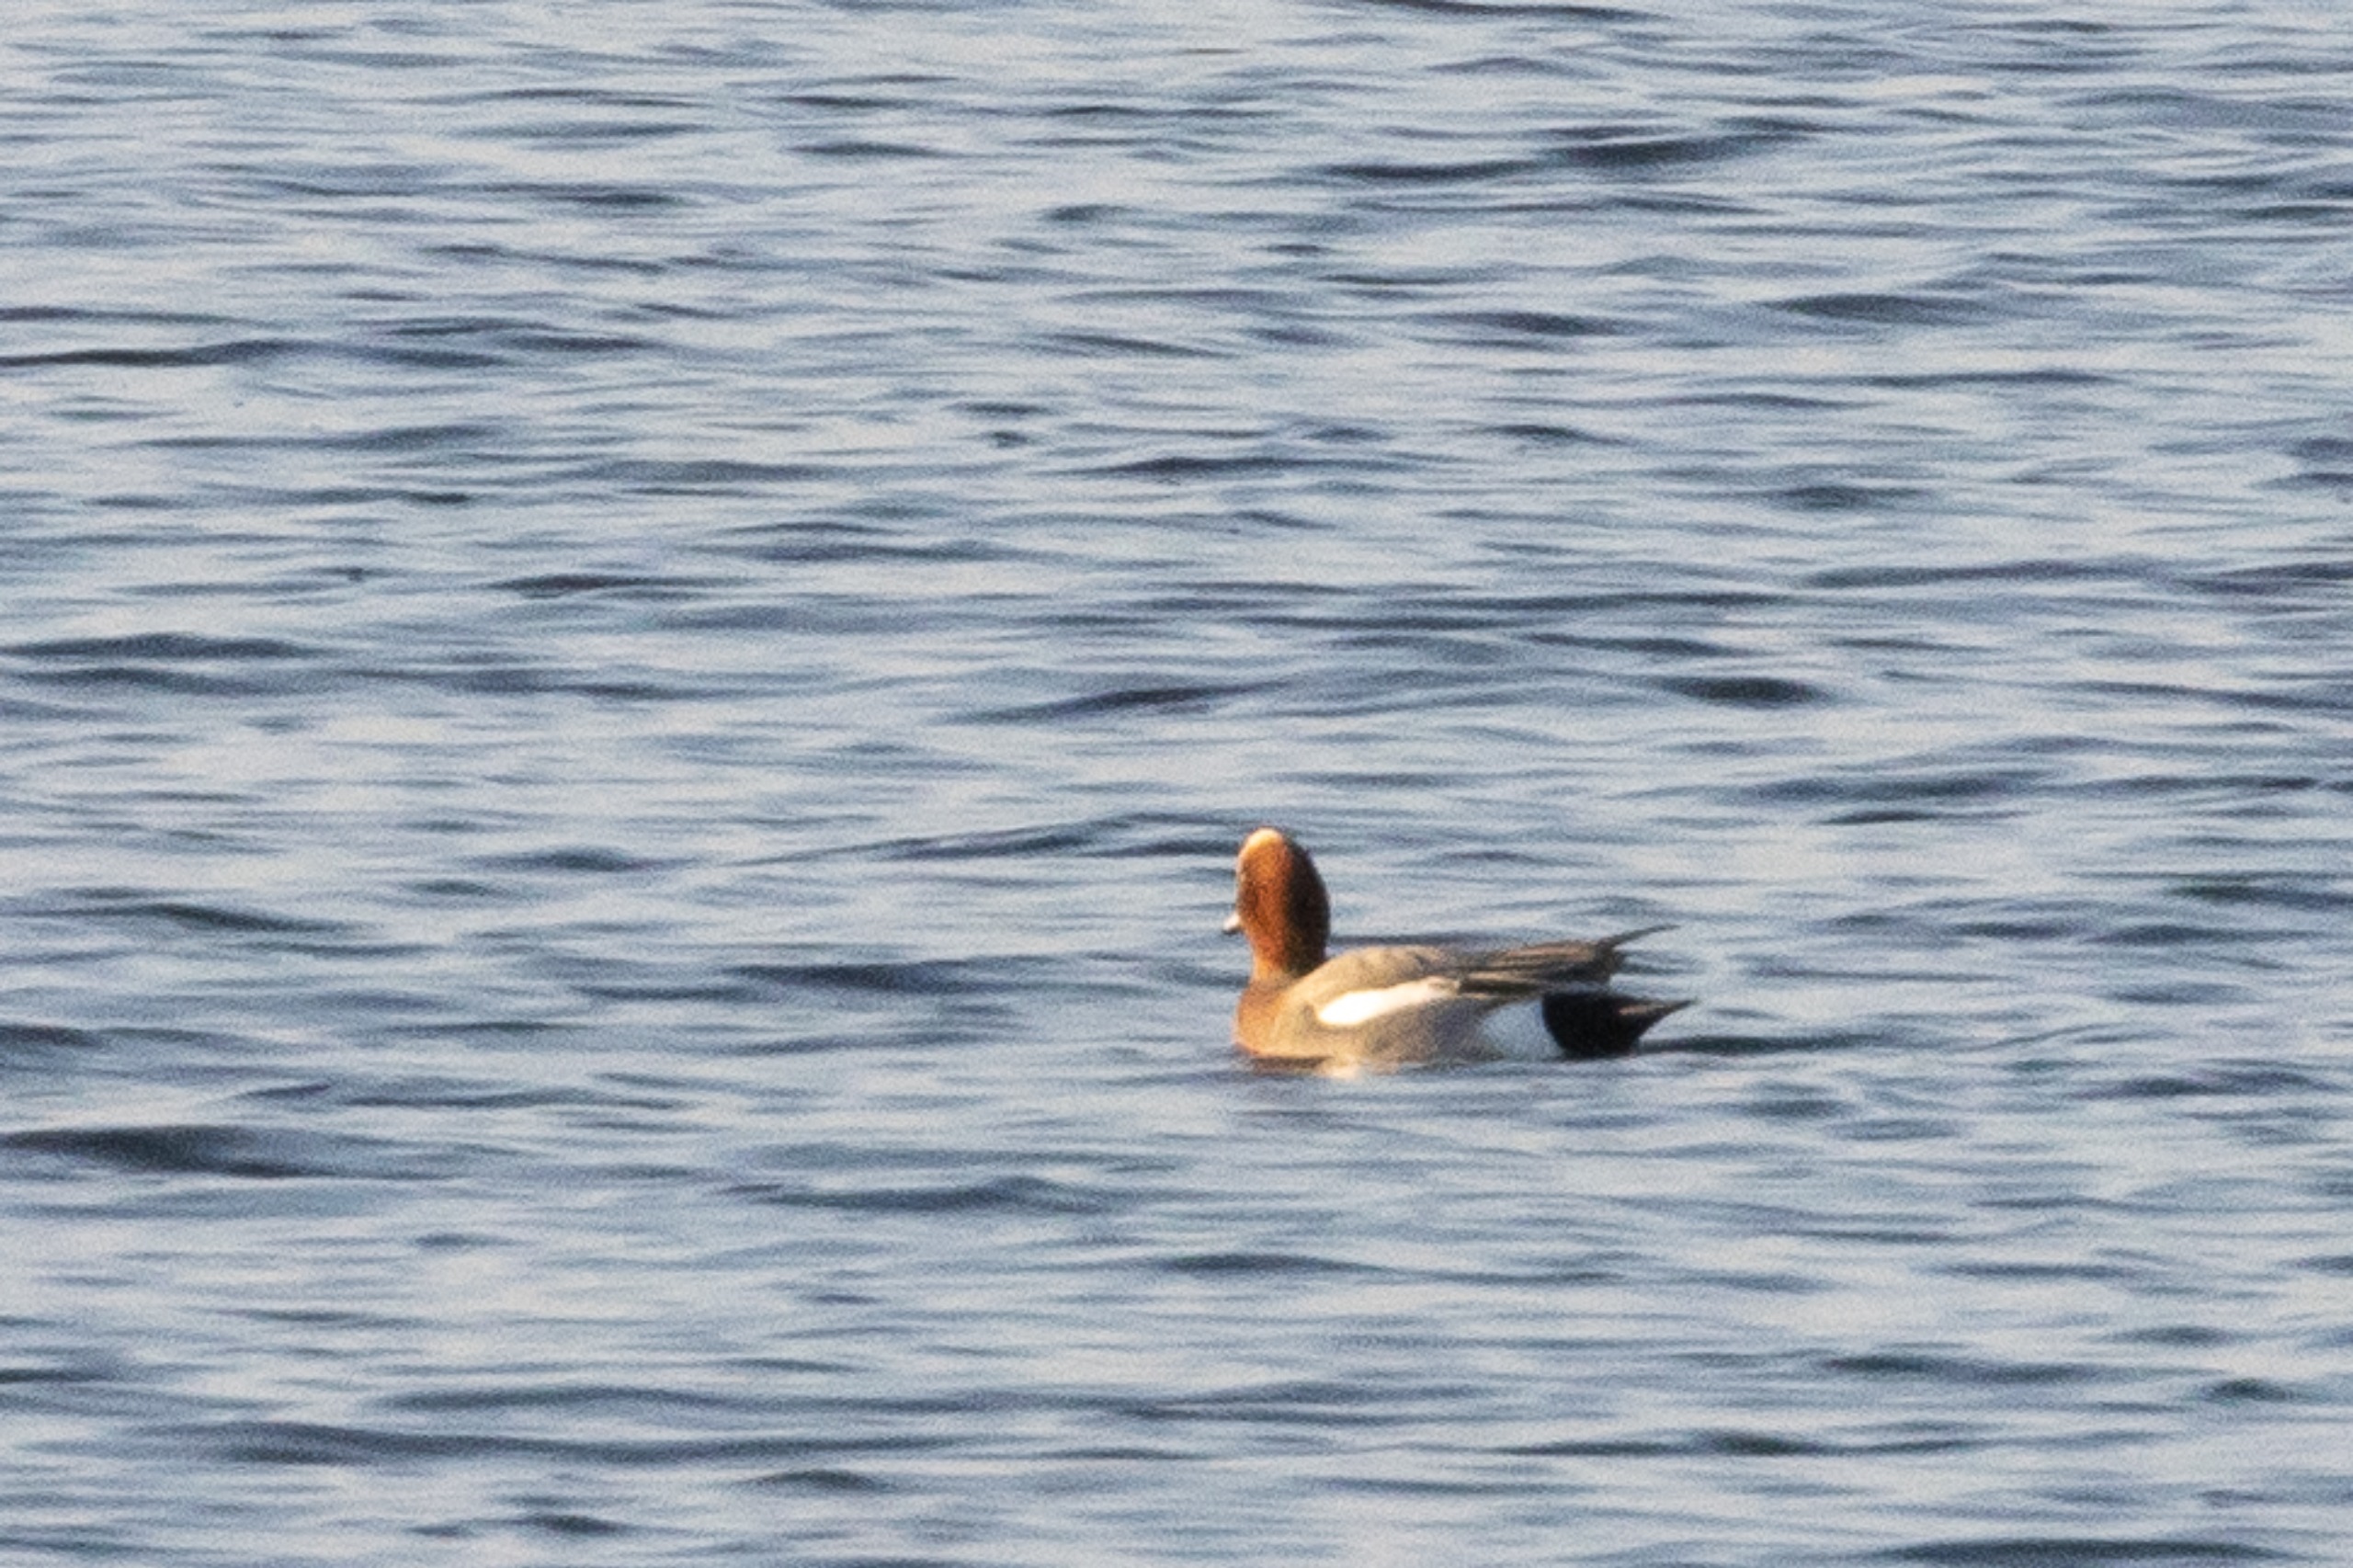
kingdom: Animalia
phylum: Chordata
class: Aves
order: Anseriformes
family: Anatidae
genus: Mareca
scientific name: Mareca penelope
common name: Pibeand
